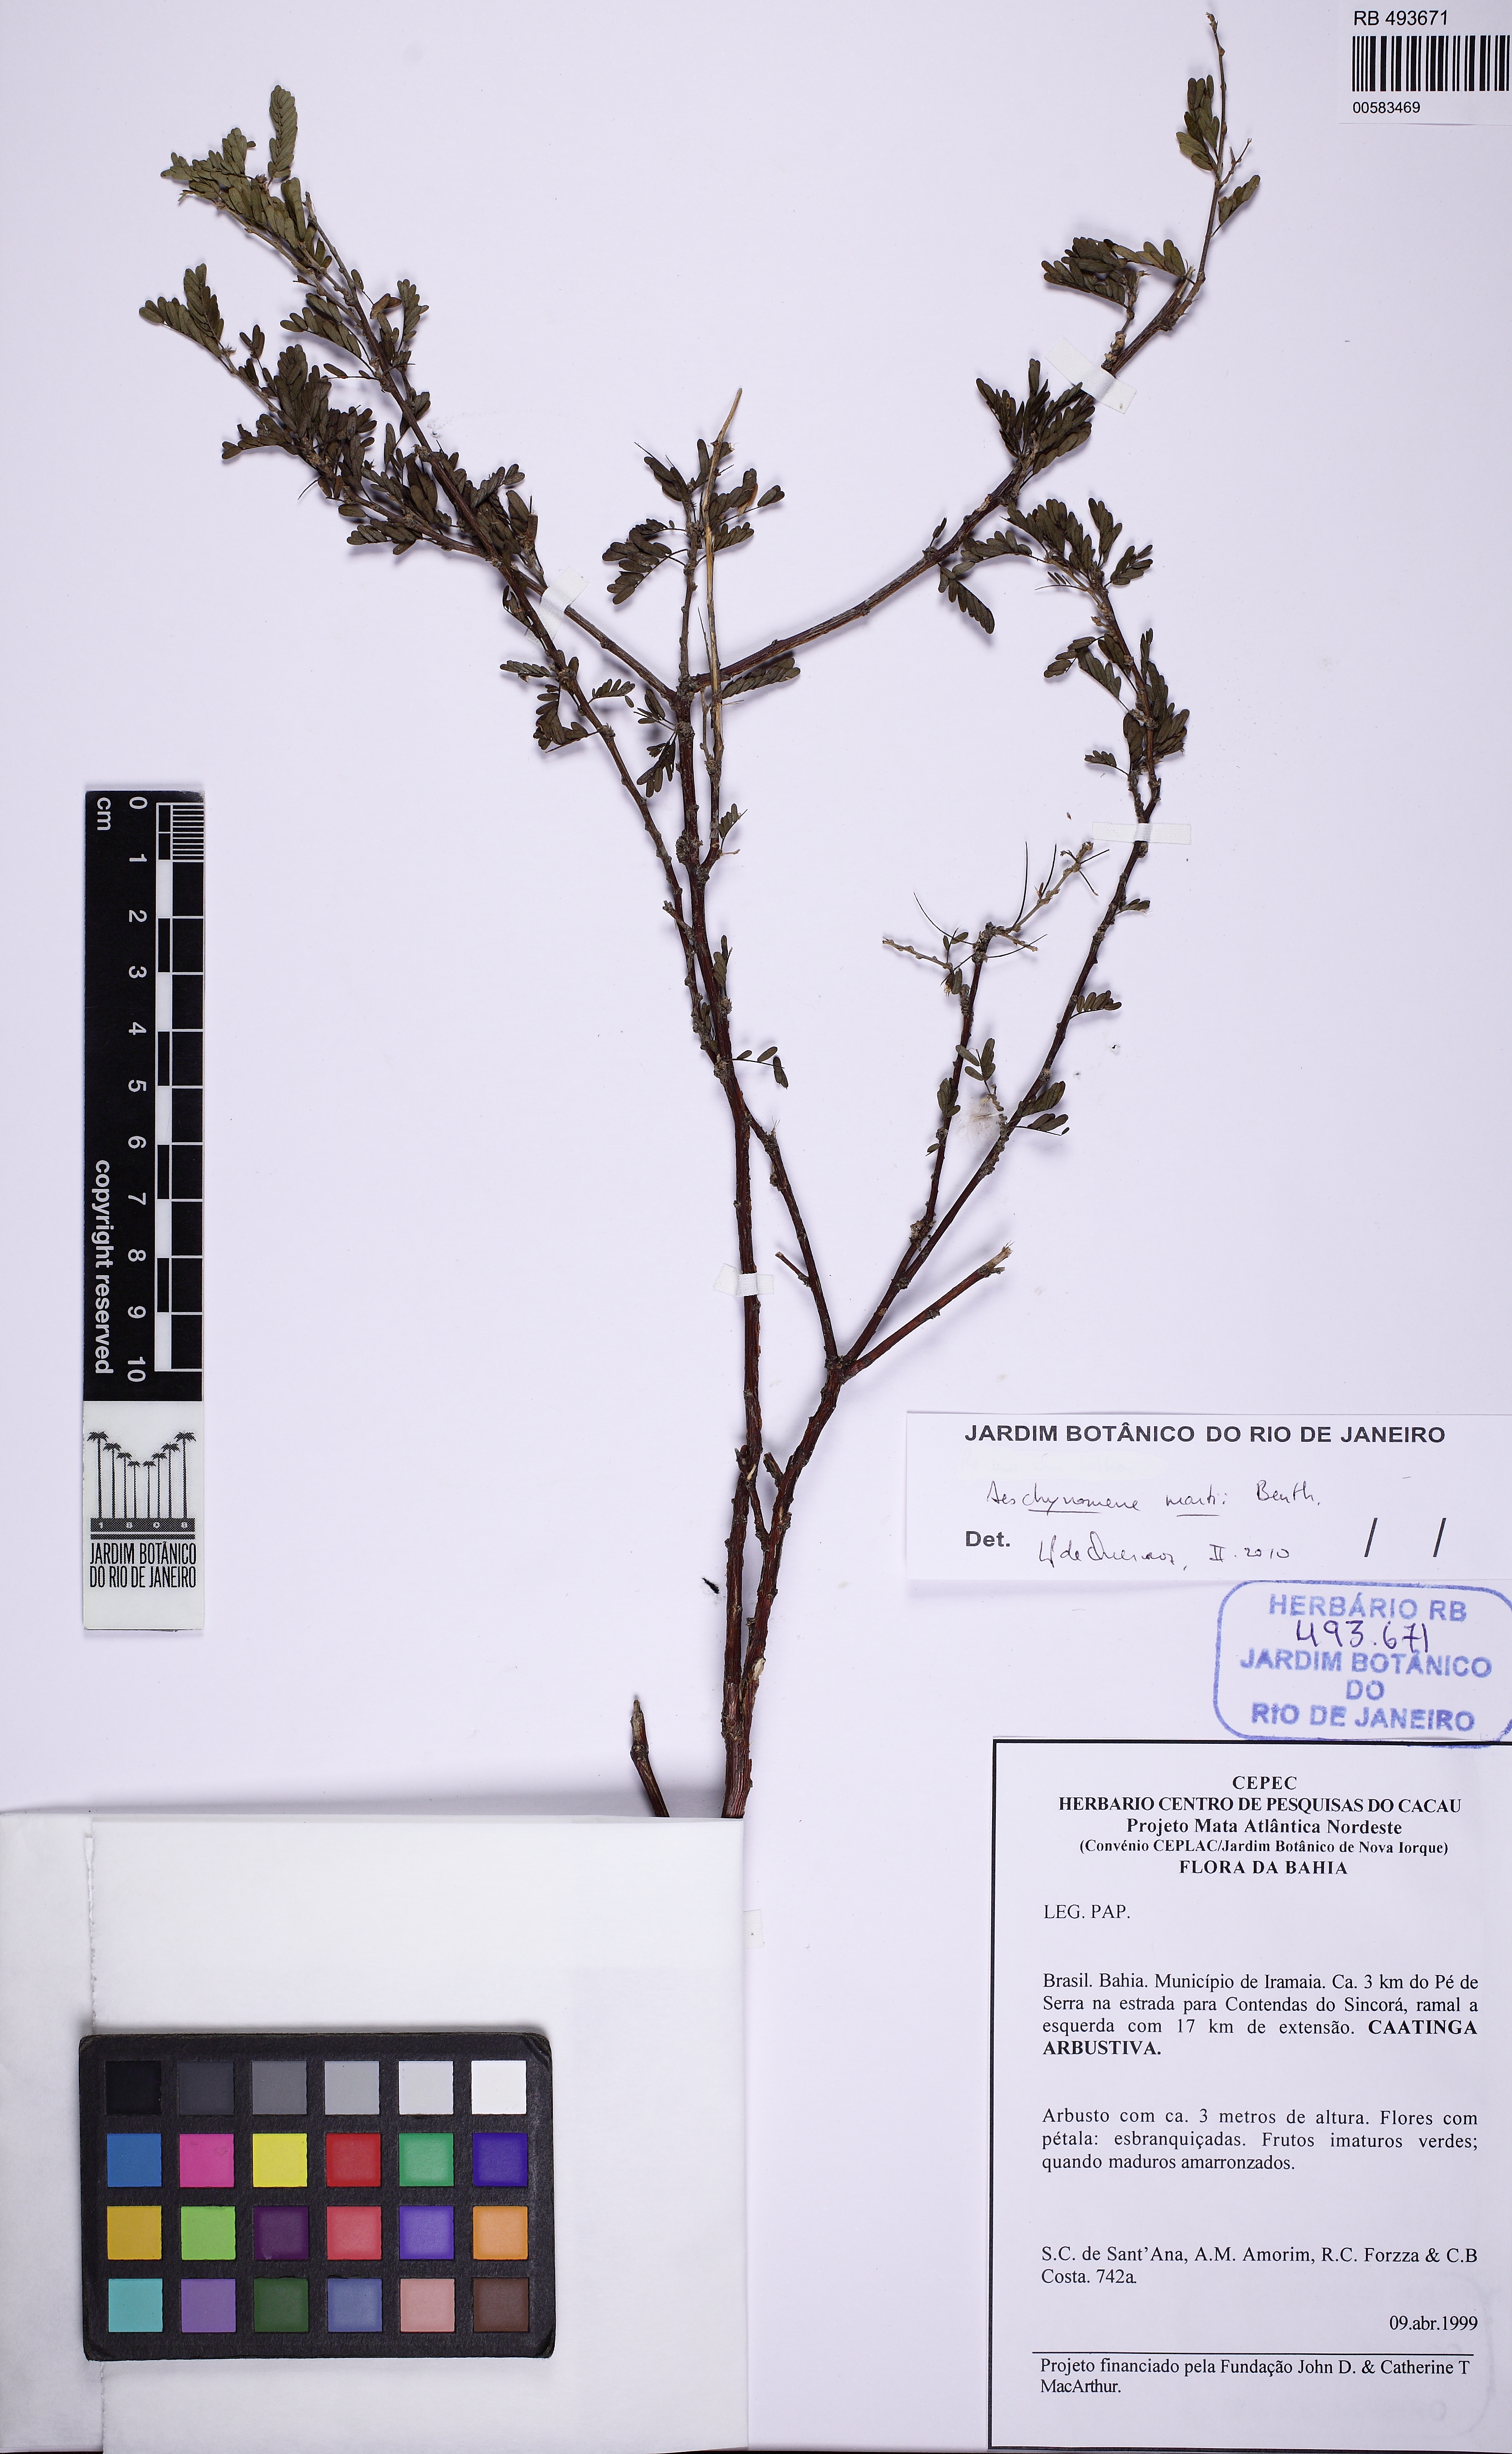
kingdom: Plantae
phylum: Tracheophyta
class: Magnoliopsida
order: Fabales
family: Fabaceae
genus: Ctenodon
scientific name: Ctenodon martii
